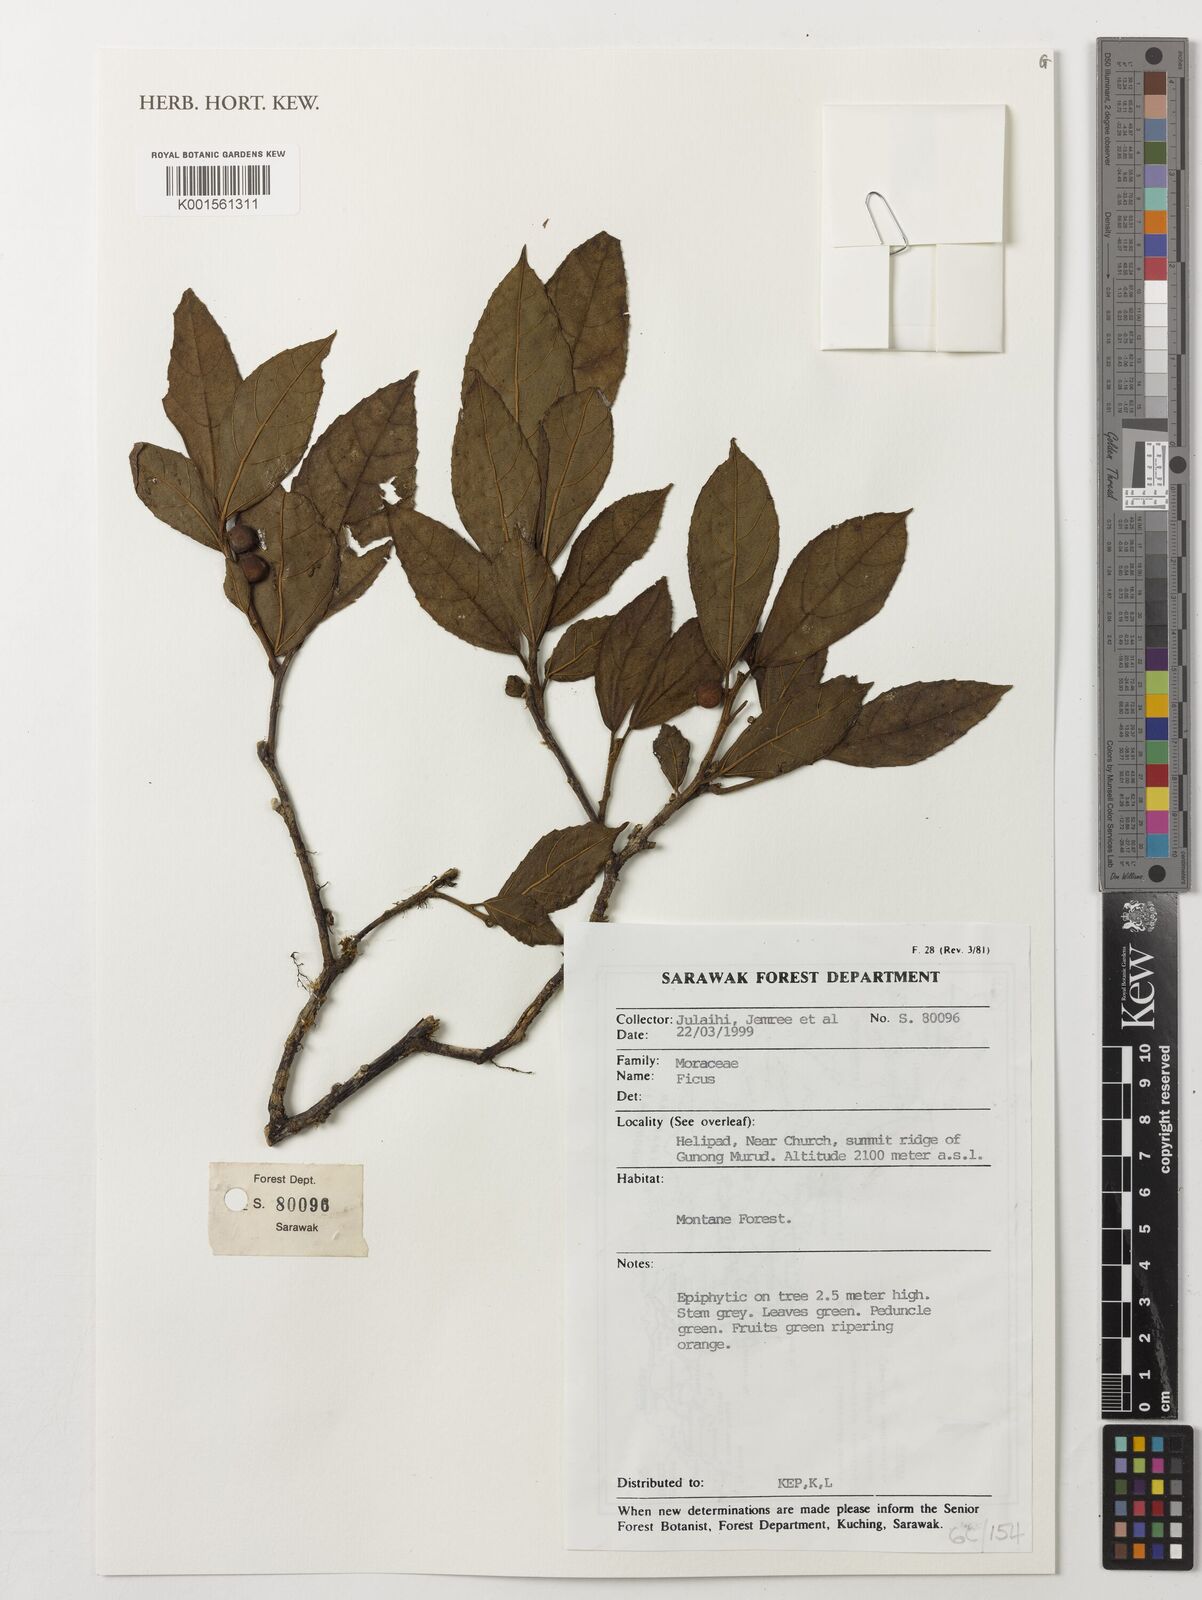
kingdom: Plantae
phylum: Tracheophyta
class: Magnoliopsida
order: Rosales
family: Moraceae
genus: Ficus
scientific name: Ficus
